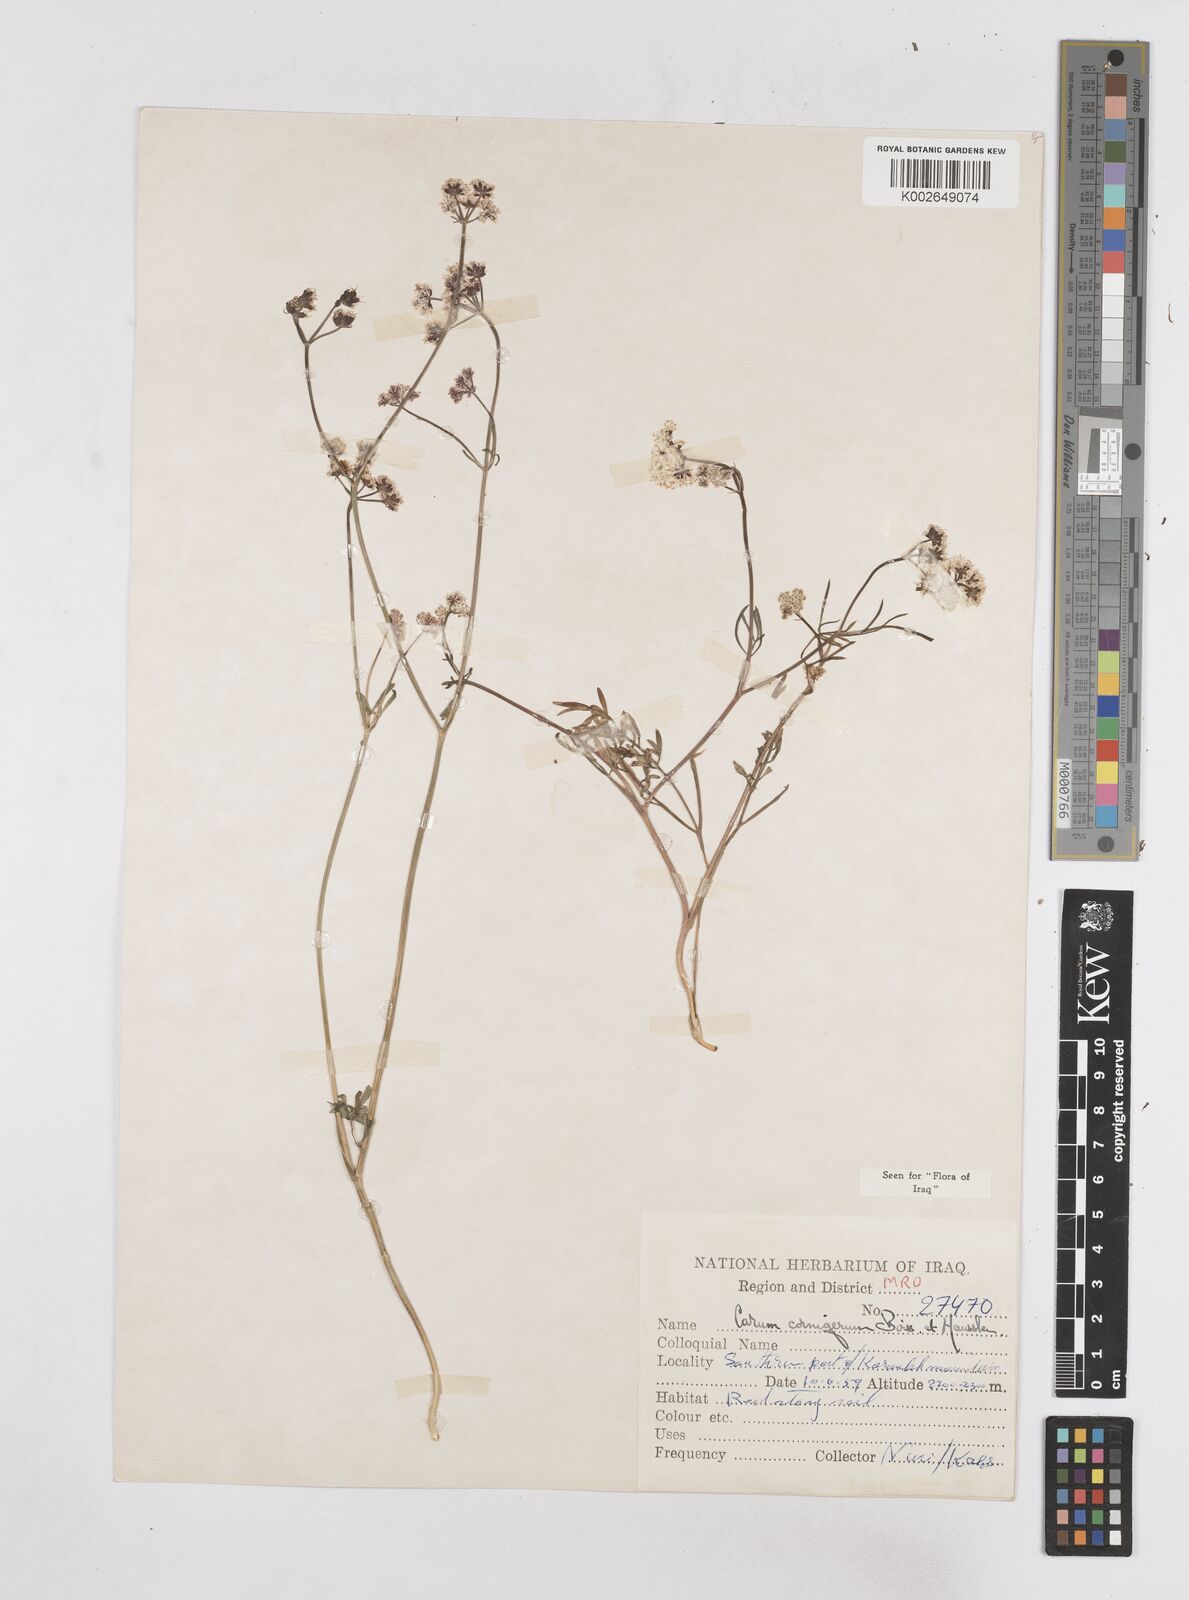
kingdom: Plantae
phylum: Tracheophyta
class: Magnoliopsida
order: Apiales
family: Apiaceae
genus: Bunium
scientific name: Bunium cornigerum
